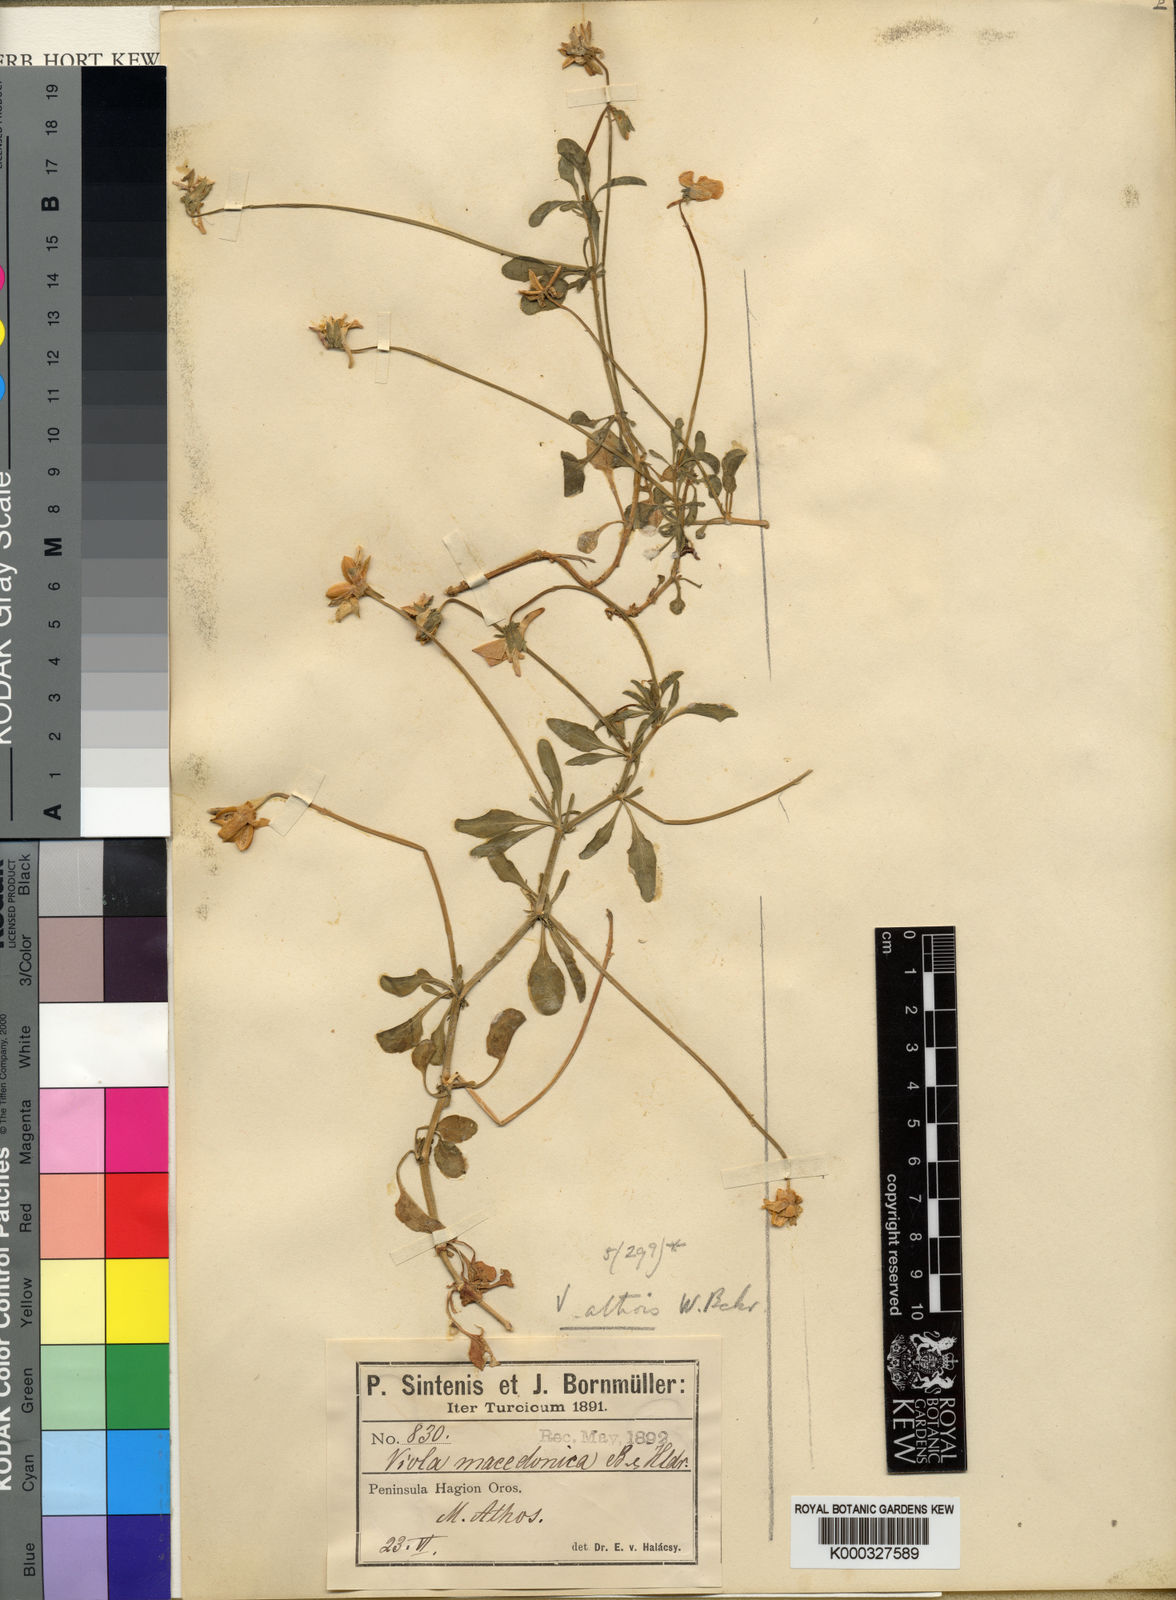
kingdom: Plantae
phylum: Tracheophyta
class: Magnoliopsida
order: Malpighiales
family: Violaceae
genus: Viola
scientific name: Viola athois
